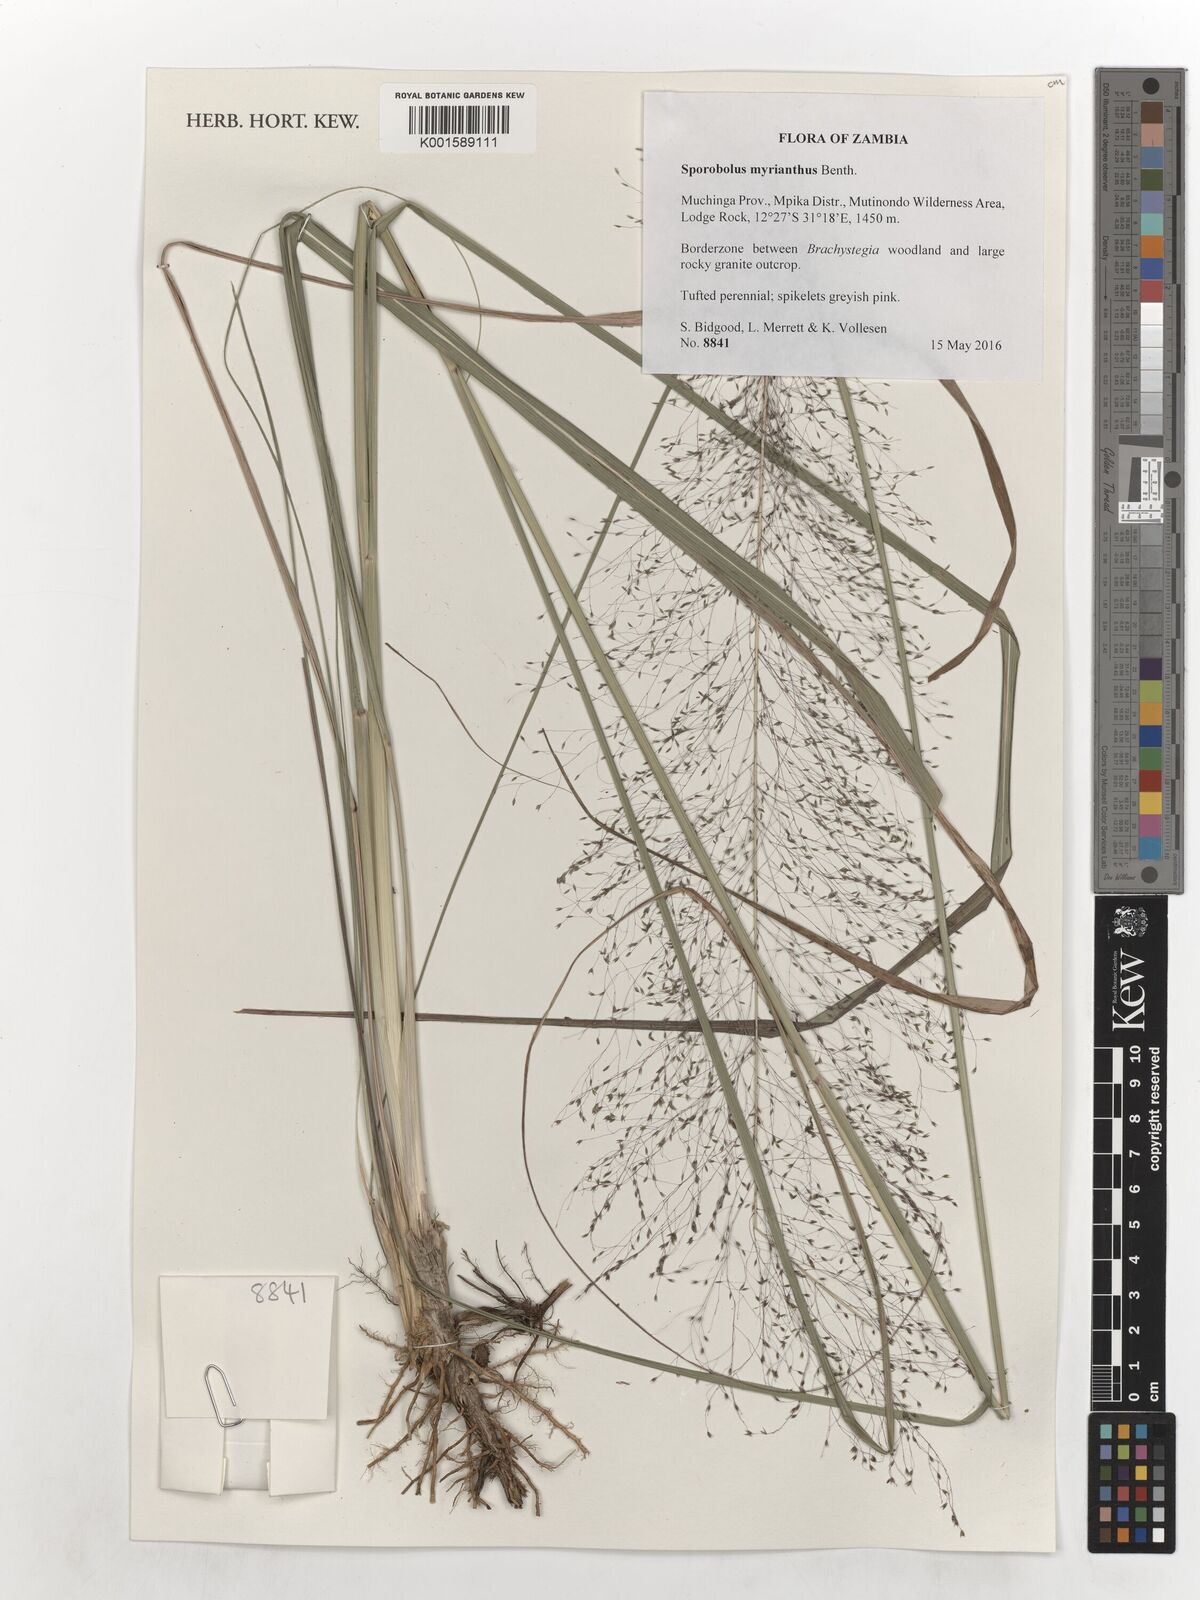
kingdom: Plantae
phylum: Tracheophyta
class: Liliopsida
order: Poales
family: Poaceae
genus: Sporobolus
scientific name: Sporobolus myrianthus
